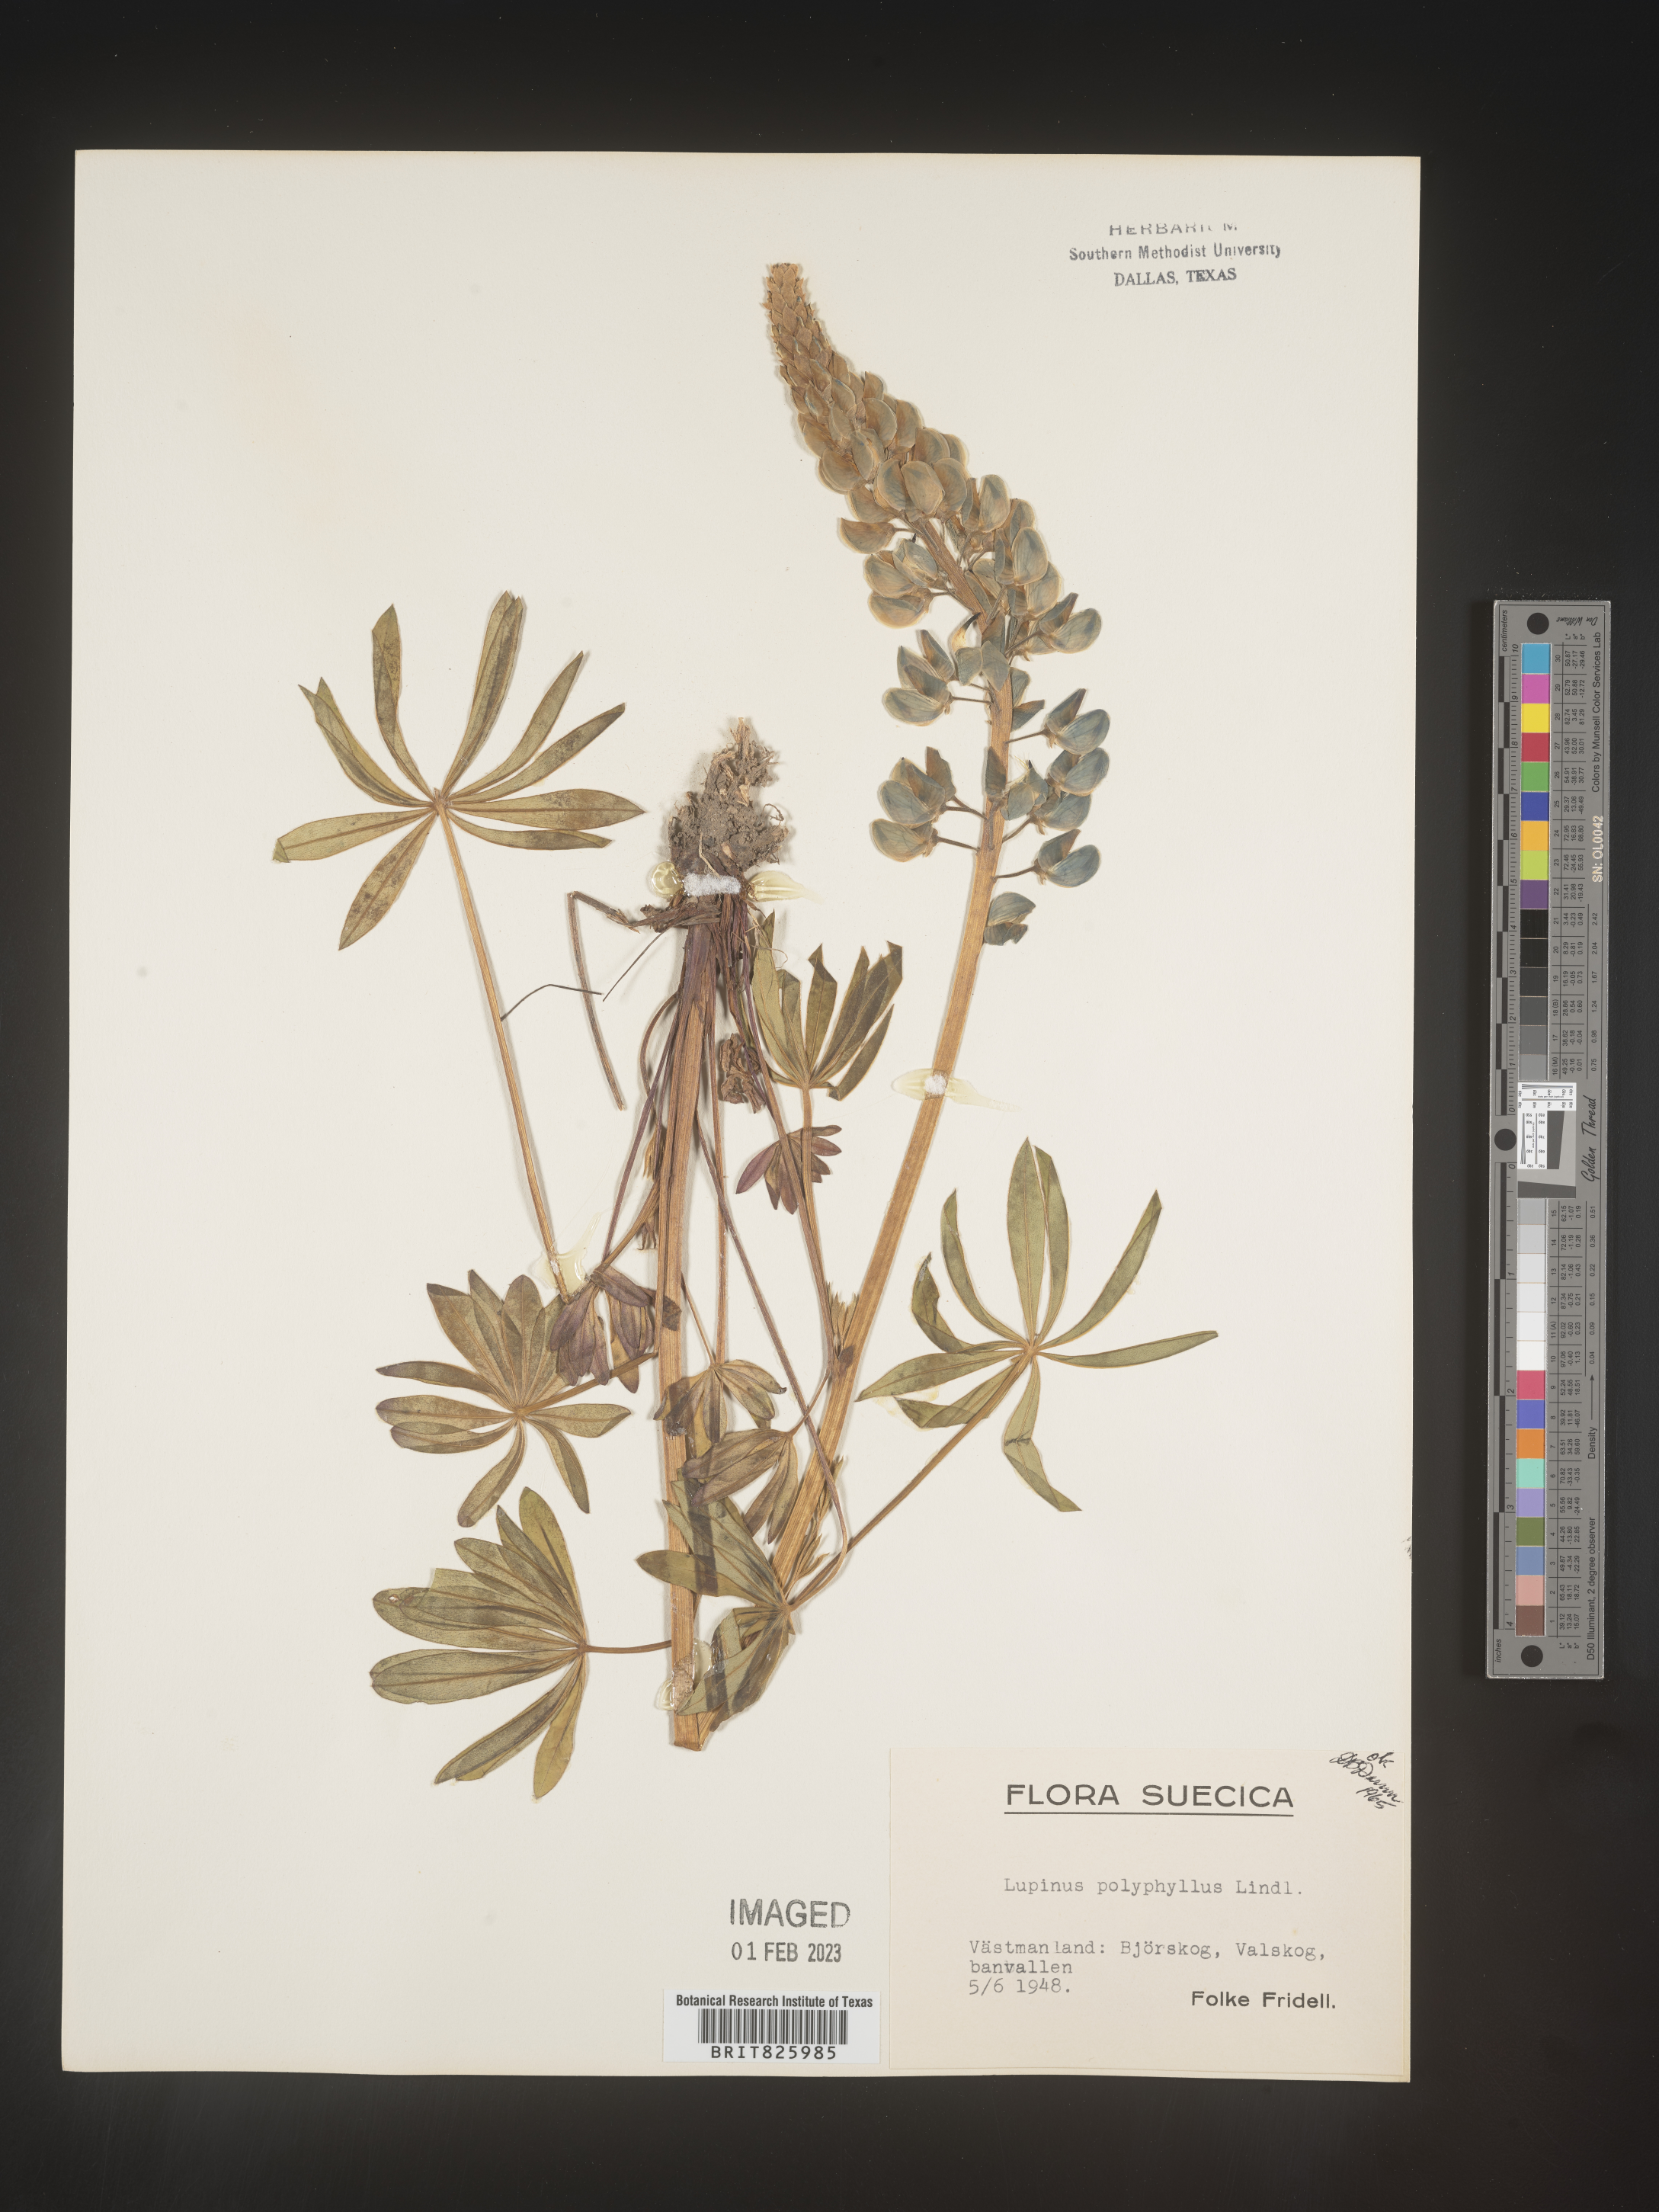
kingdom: Plantae
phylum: Tracheophyta
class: Magnoliopsida
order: Fabales
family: Fabaceae
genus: Lupinus
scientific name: Lupinus
